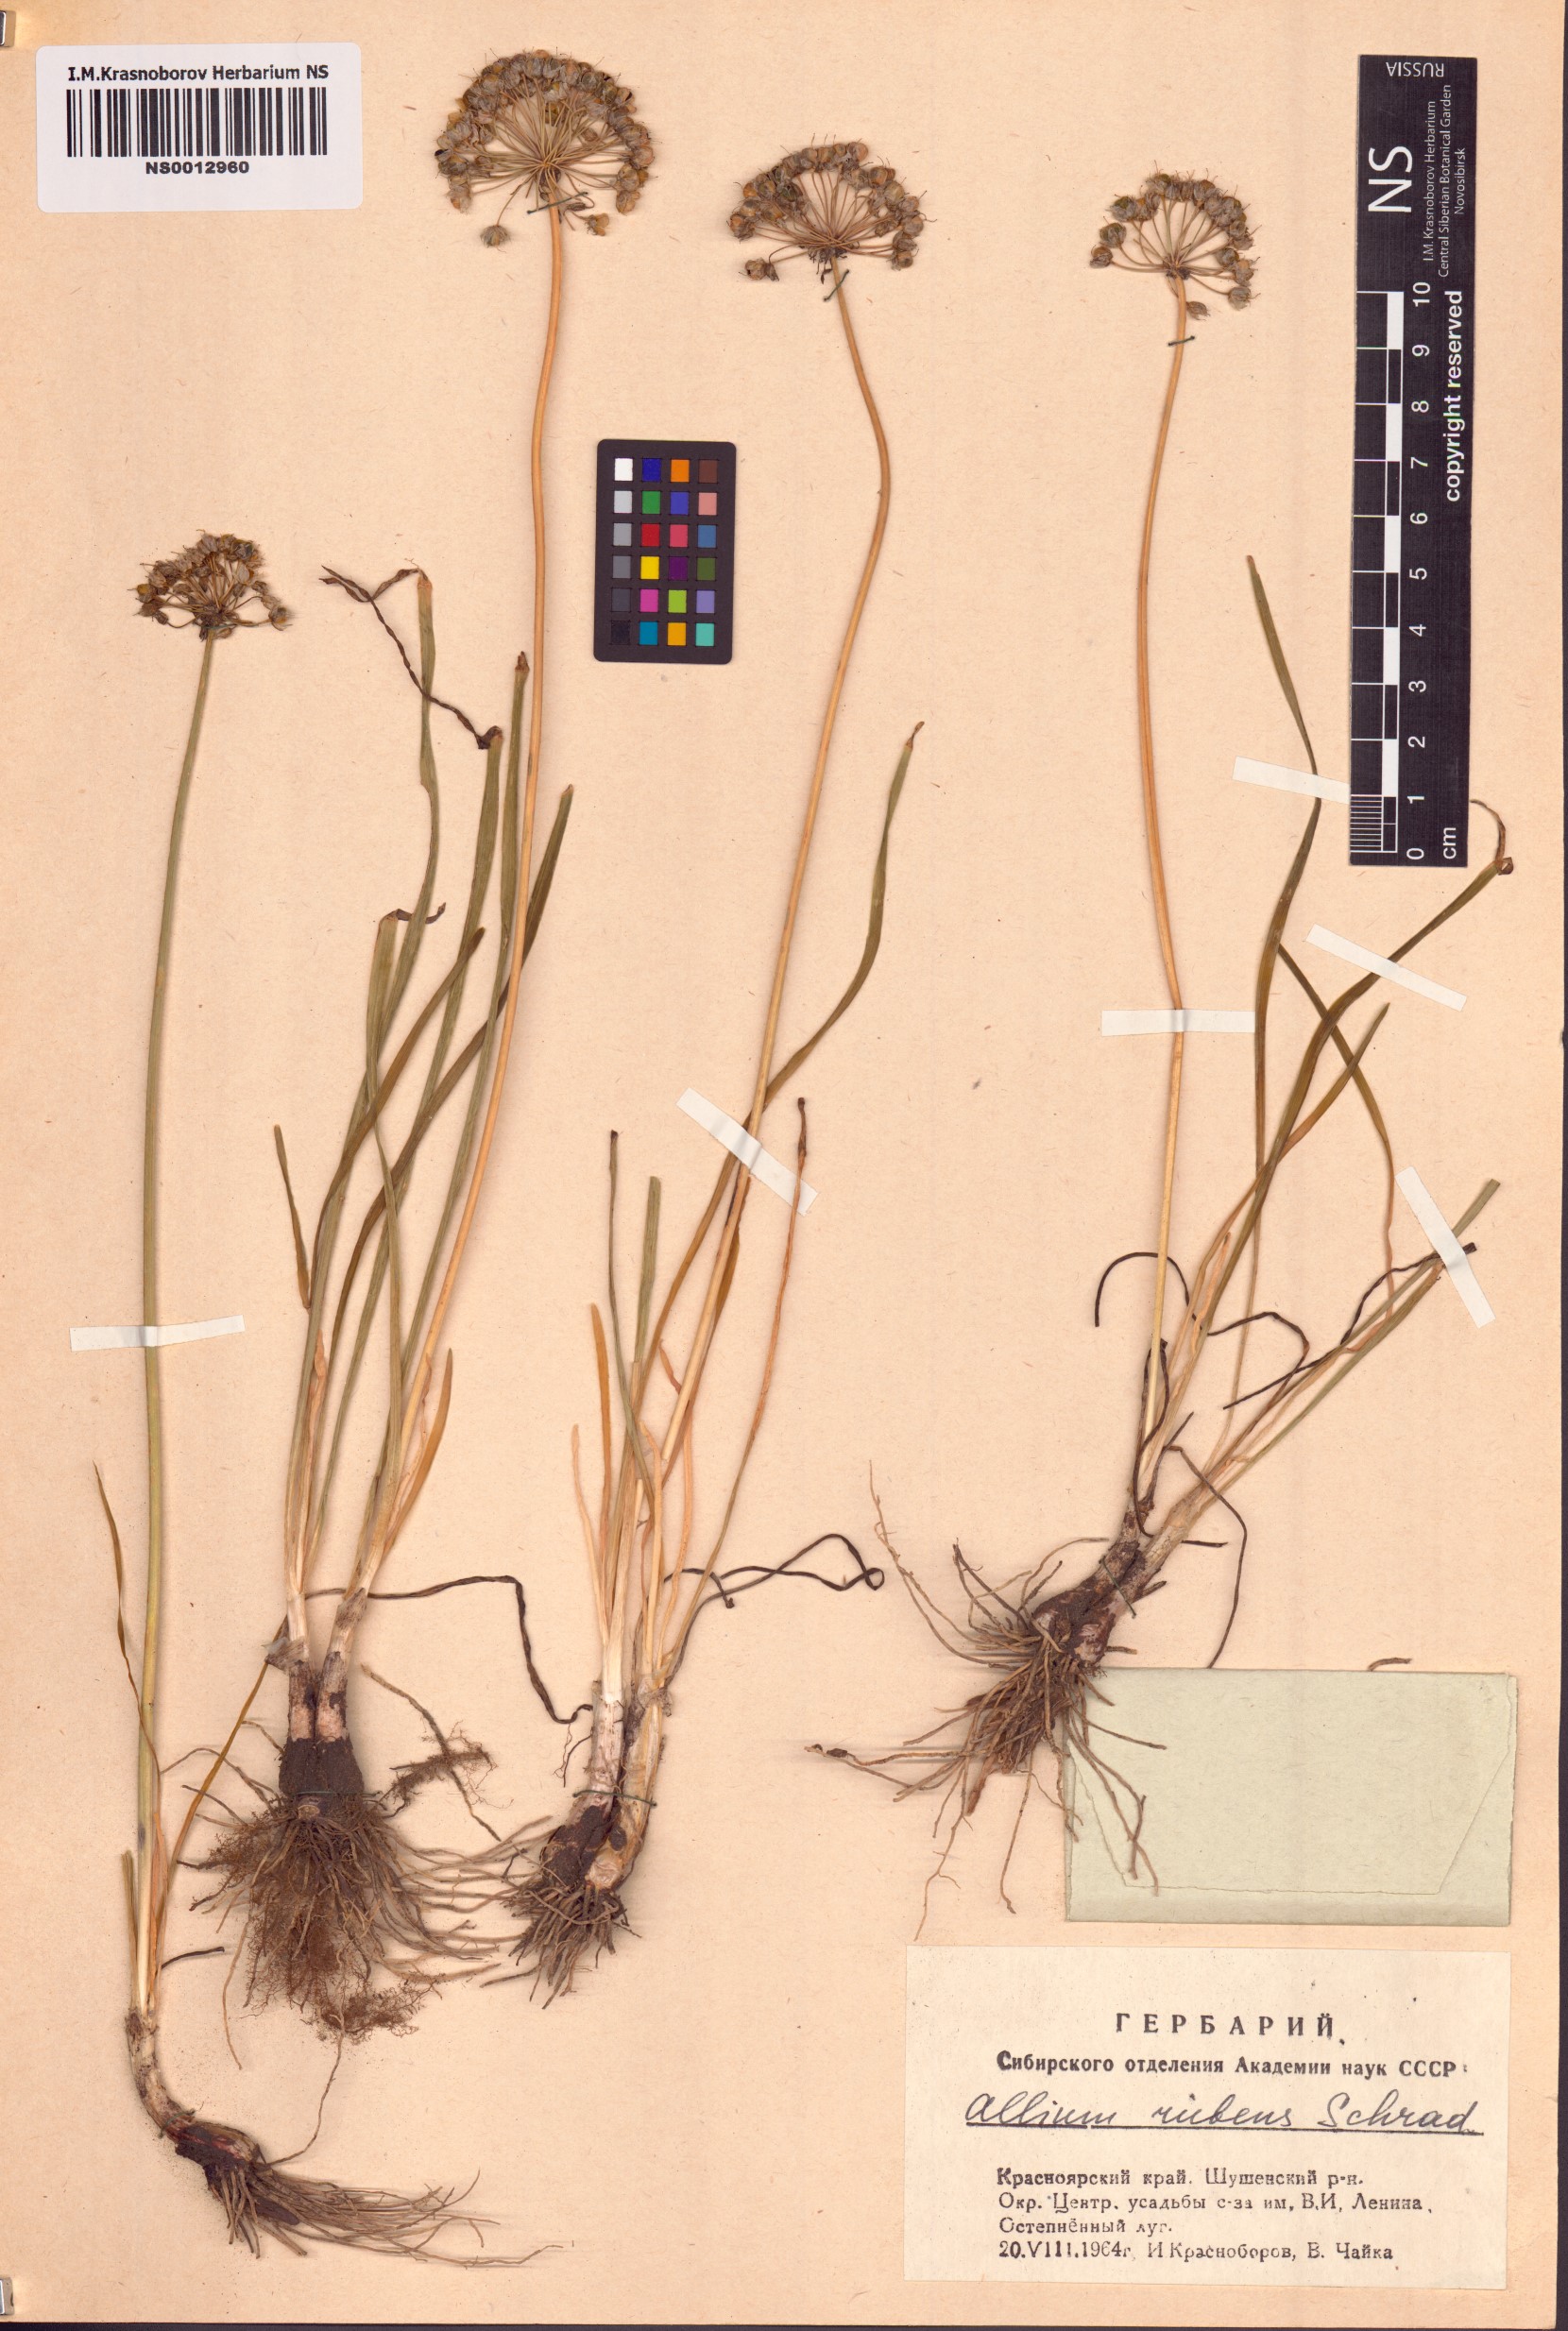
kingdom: Plantae
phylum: Tracheophyta
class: Liliopsida
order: Asparagales
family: Amaryllidaceae
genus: Allium
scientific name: Allium rubens
